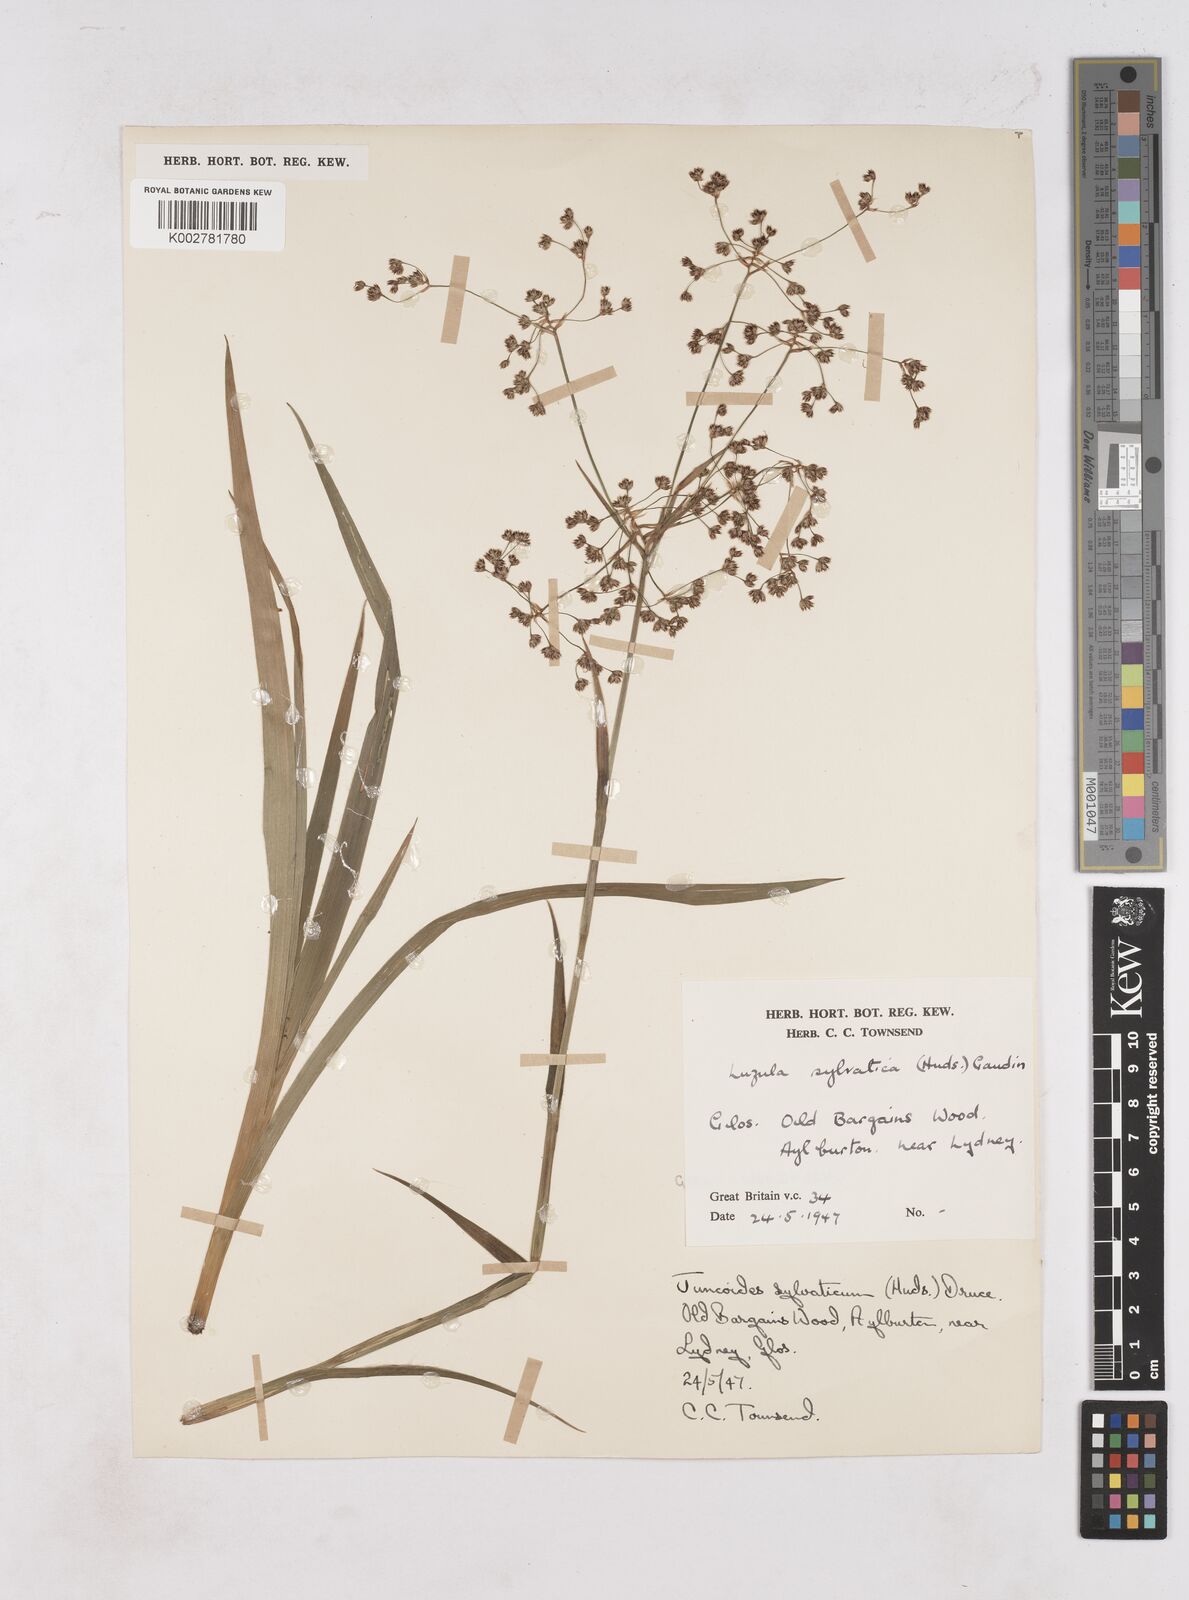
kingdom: Plantae
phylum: Tracheophyta
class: Liliopsida
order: Poales
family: Juncaceae
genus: Luzula
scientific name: Luzula sylvatica
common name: Great wood-rush
